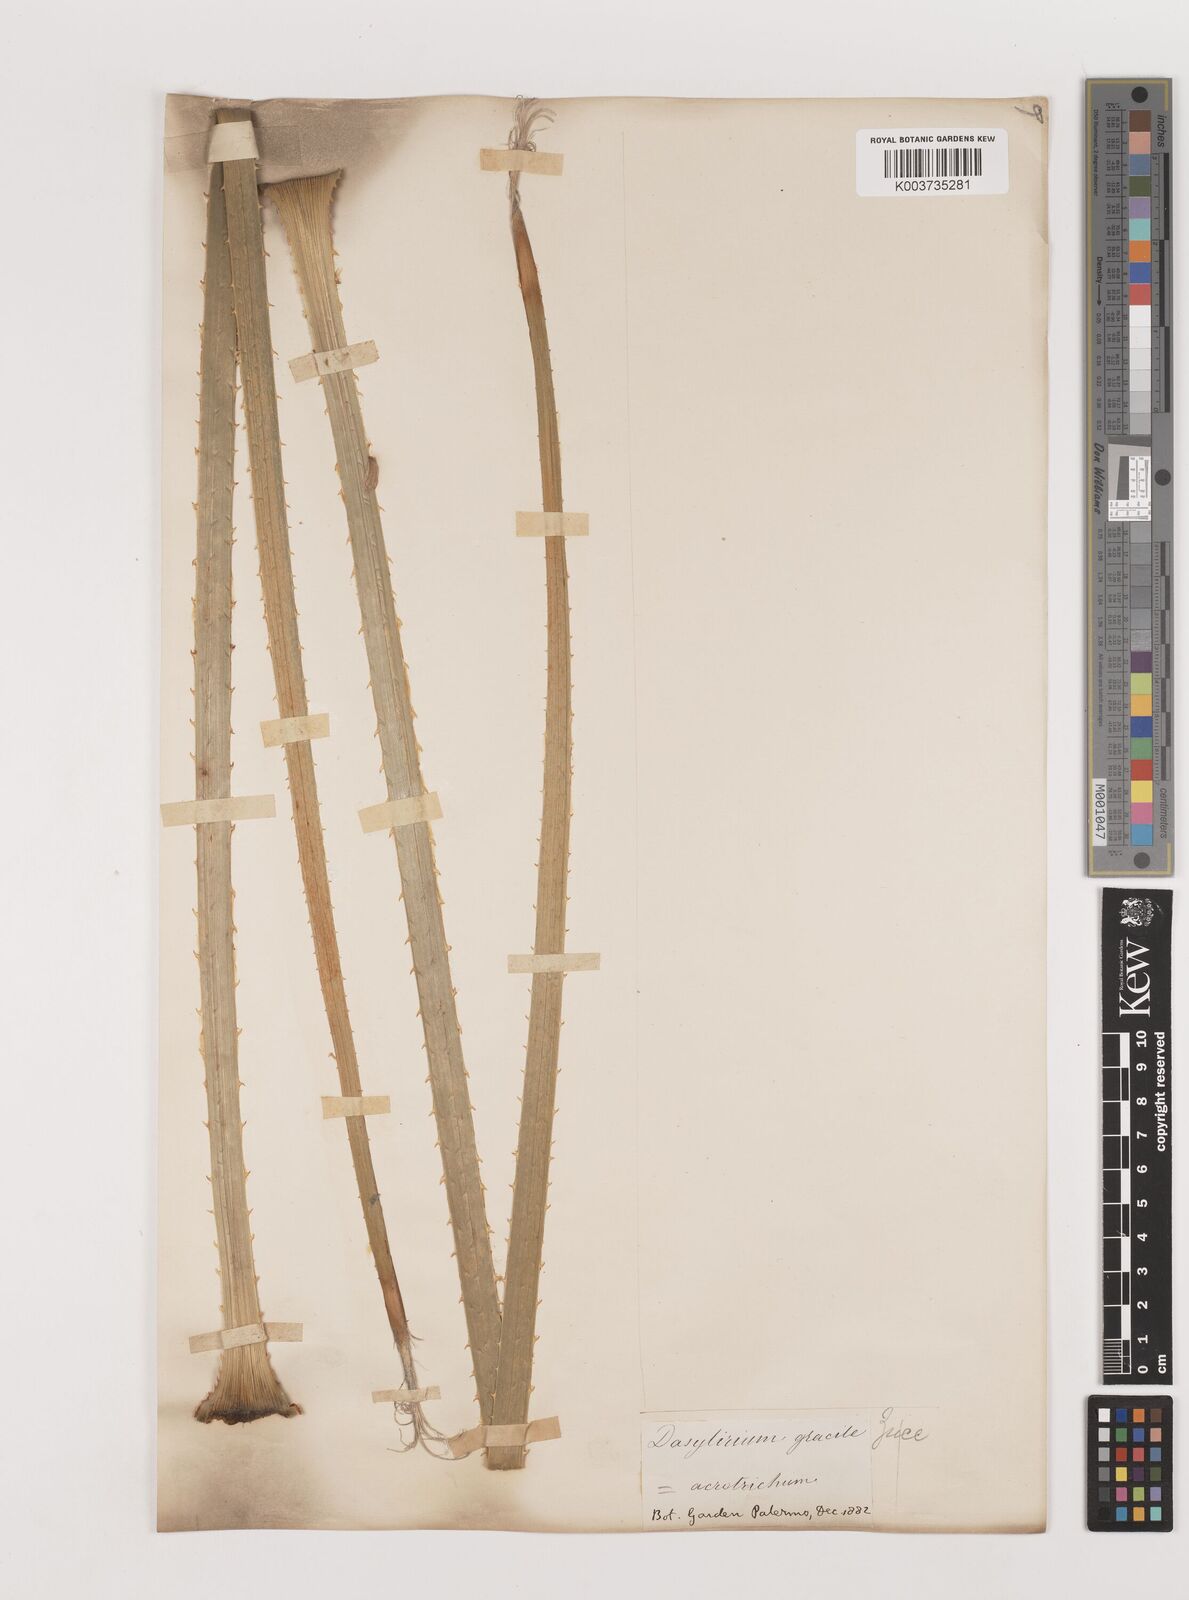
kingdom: Plantae
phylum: Tracheophyta
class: Liliopsida
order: Asparagales
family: Asparagaceae
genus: Dasylirion
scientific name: Dasylirion acrotrichum
